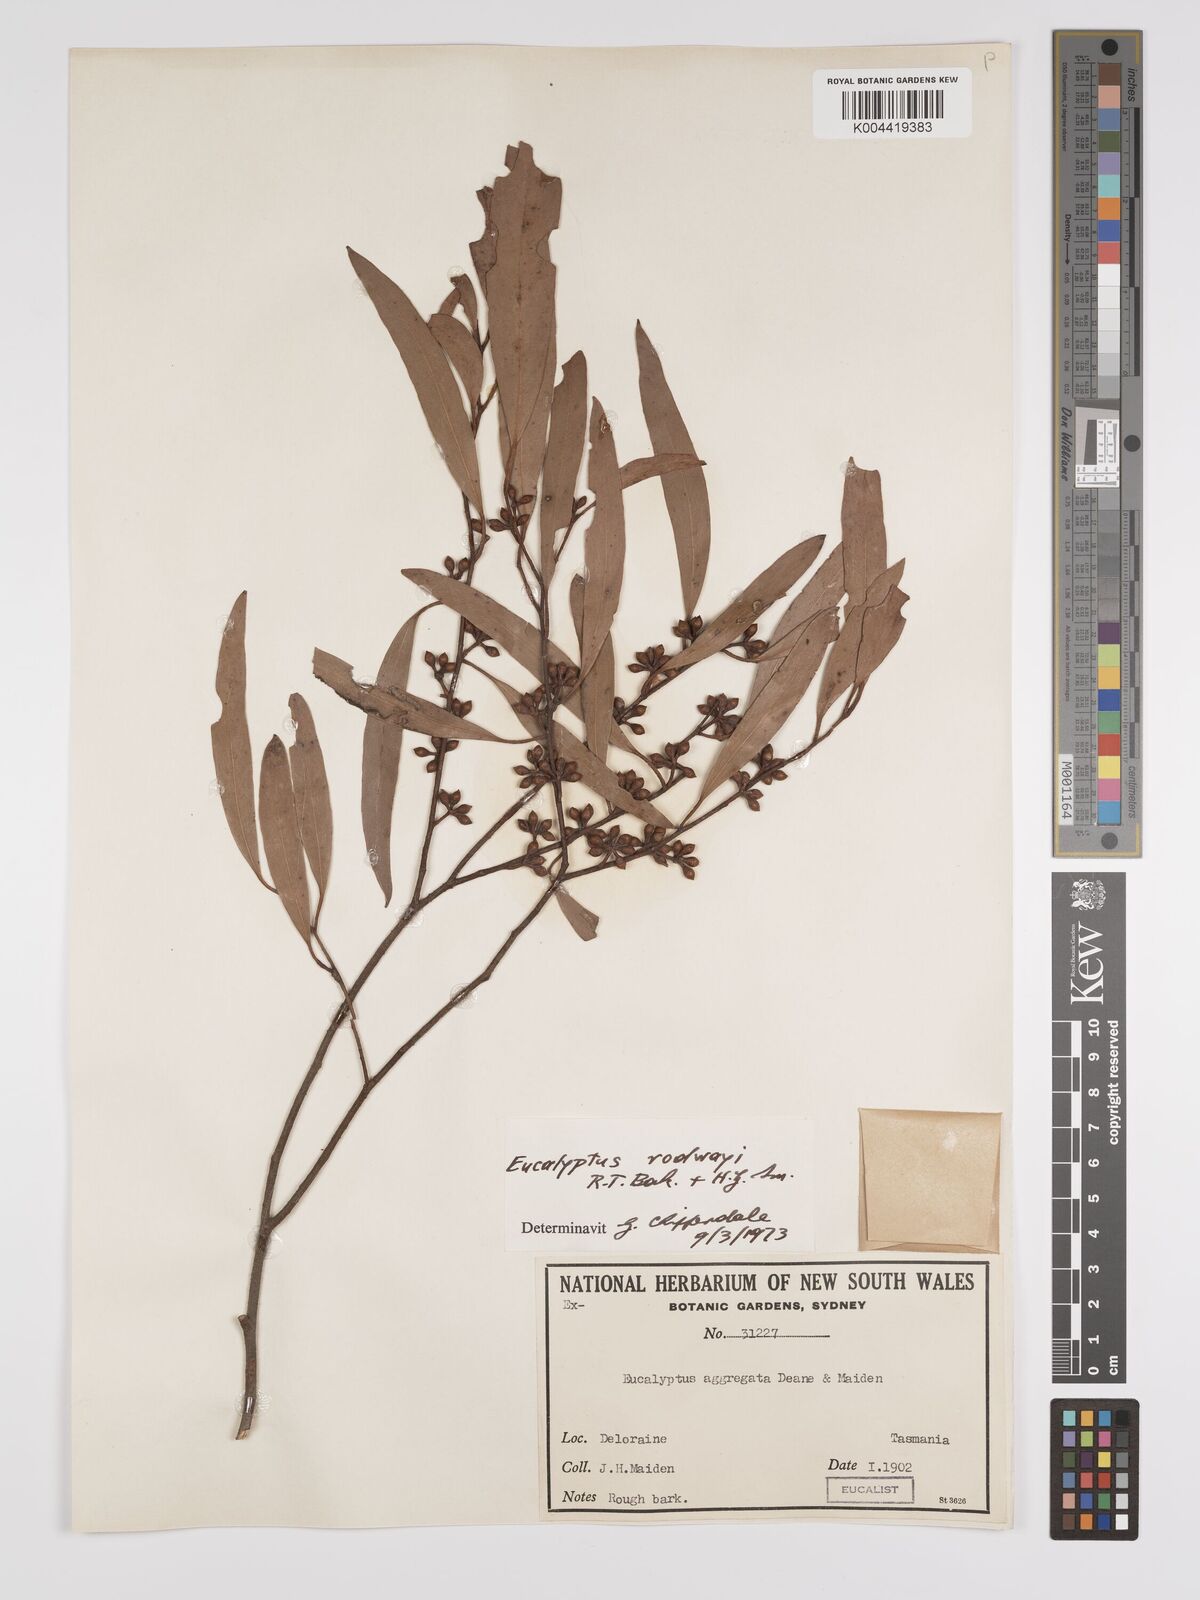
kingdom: Plantae
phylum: Tracheophyta
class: Magnoliopsida
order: Myrtales
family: Myrtaceae
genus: Eucalyptus
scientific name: Eucalyptus rodwayi
